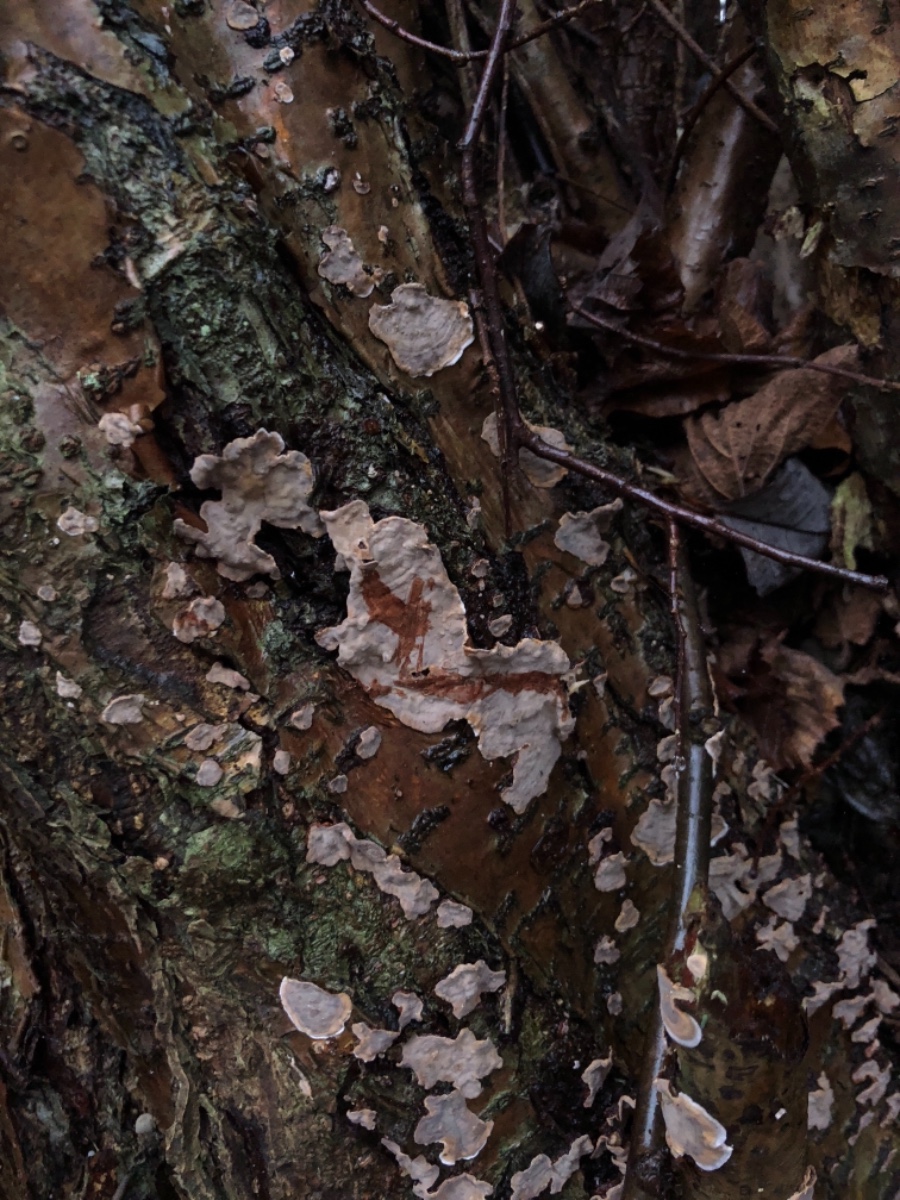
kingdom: Fungi
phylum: Basidiomycota
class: Agaricomycetes
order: Russulales
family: Stereaceae
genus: Stereum
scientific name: Stereum rugosum
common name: rynket lædersvamp
